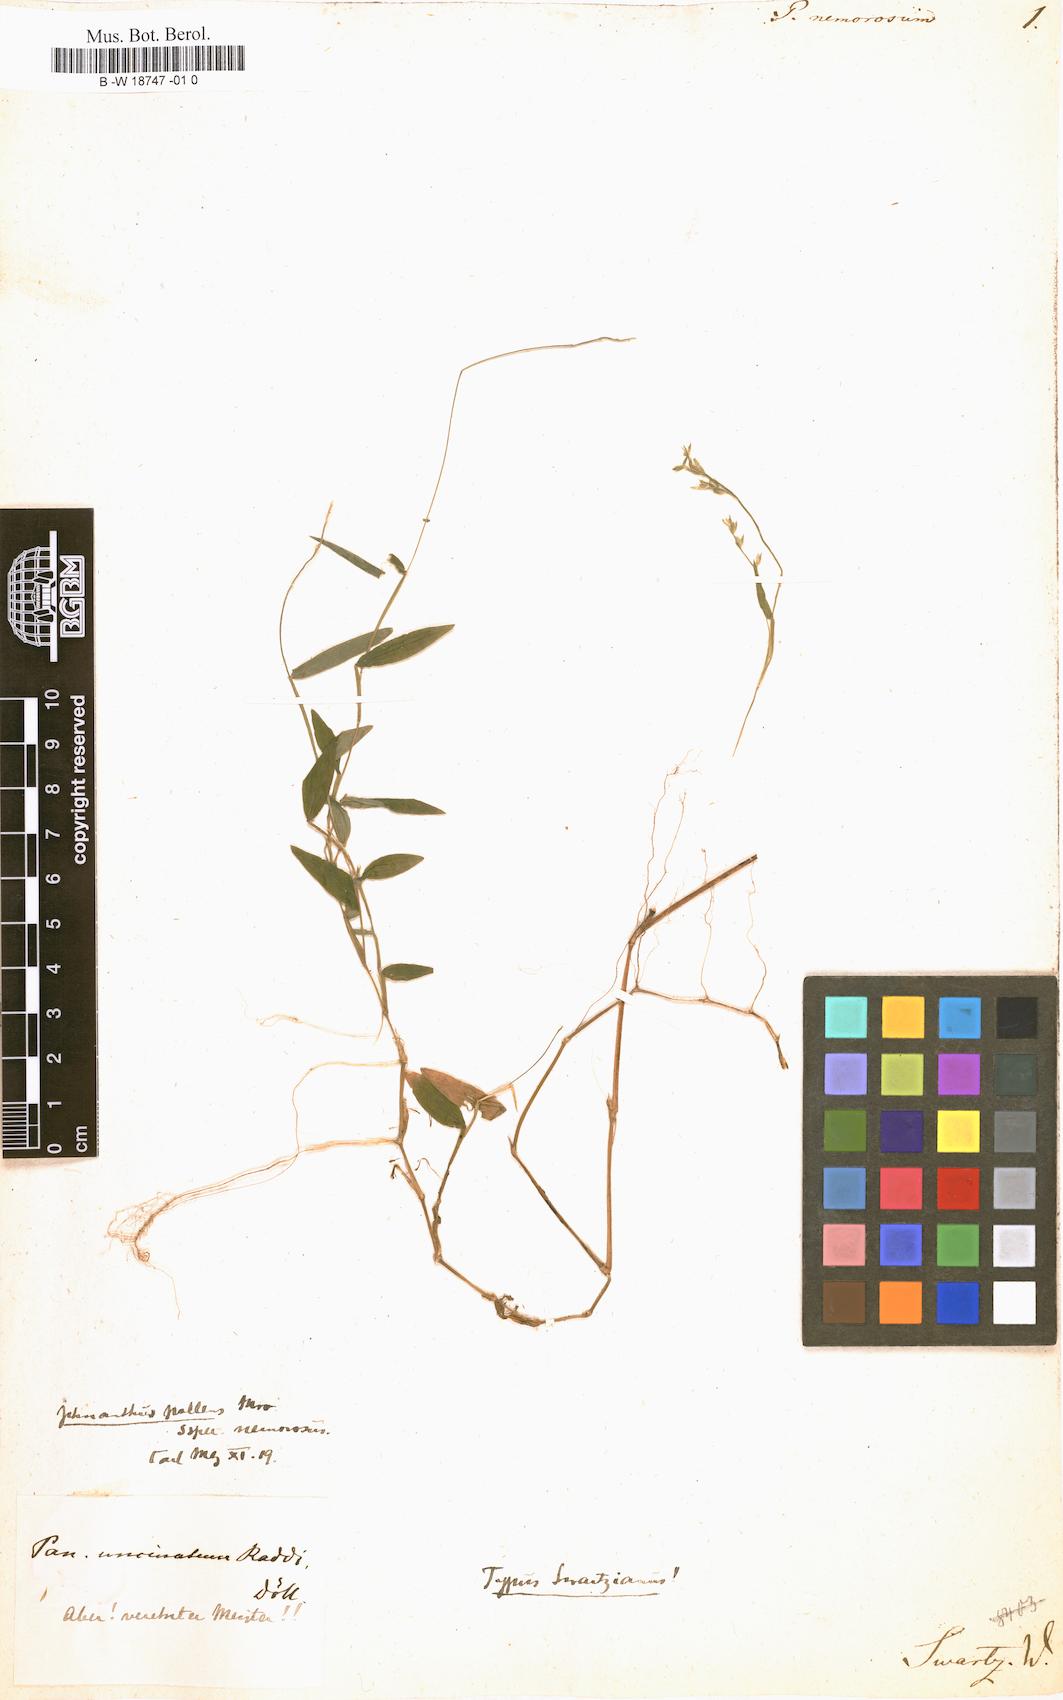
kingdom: Plantae
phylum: Tracheophyta
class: Liliopsida
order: Poales
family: Poaceae
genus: Ichnanthus
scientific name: Ichnanthus nemorosus
